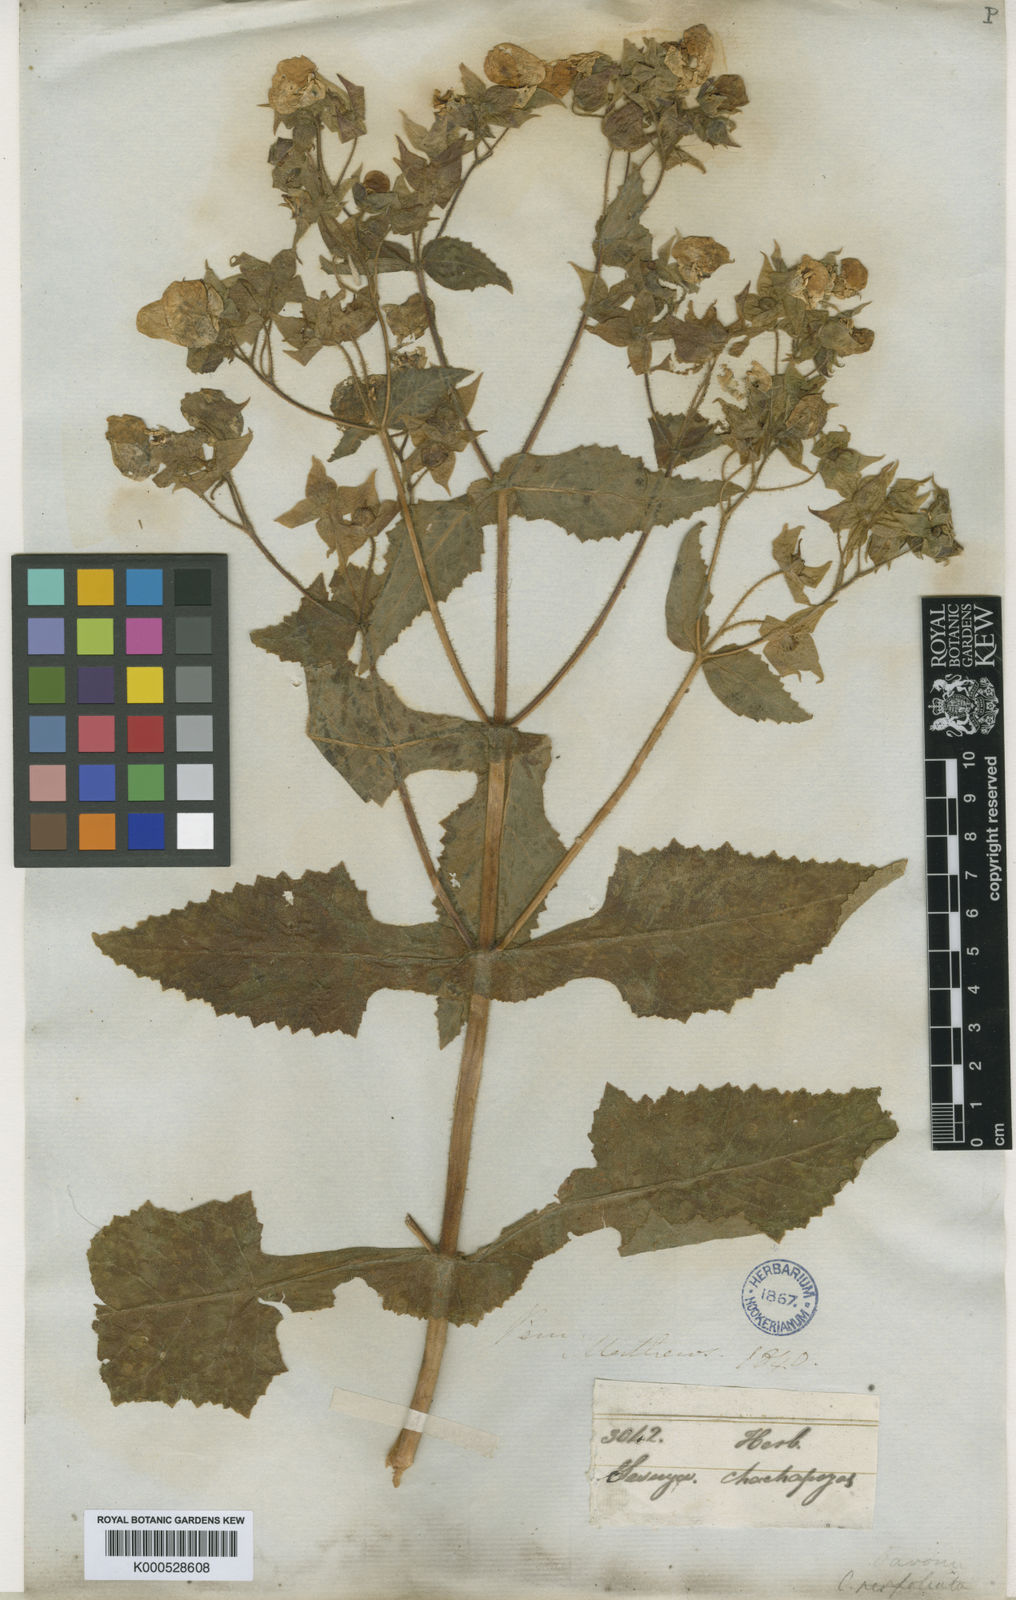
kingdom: Plantae
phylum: Tracheophyta
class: Magnoliopsida
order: Lamiales
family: Calceolariaceae
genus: Calceolaria
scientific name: Calceolaria pavonii
